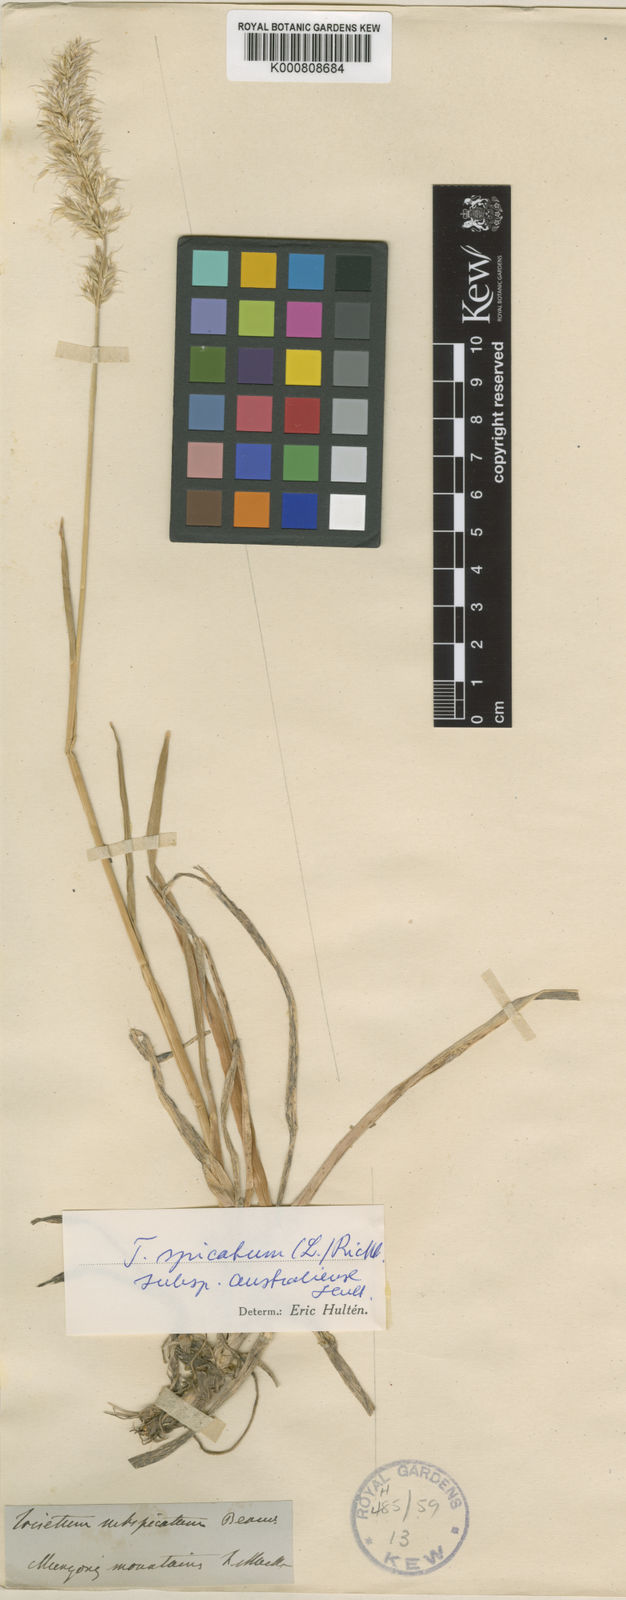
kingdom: Plantae
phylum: Tracheophyta
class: Liliopsida
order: Poales
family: Poaceae
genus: Koeleria
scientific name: Koeleria spicata
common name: Mountain trisetum
